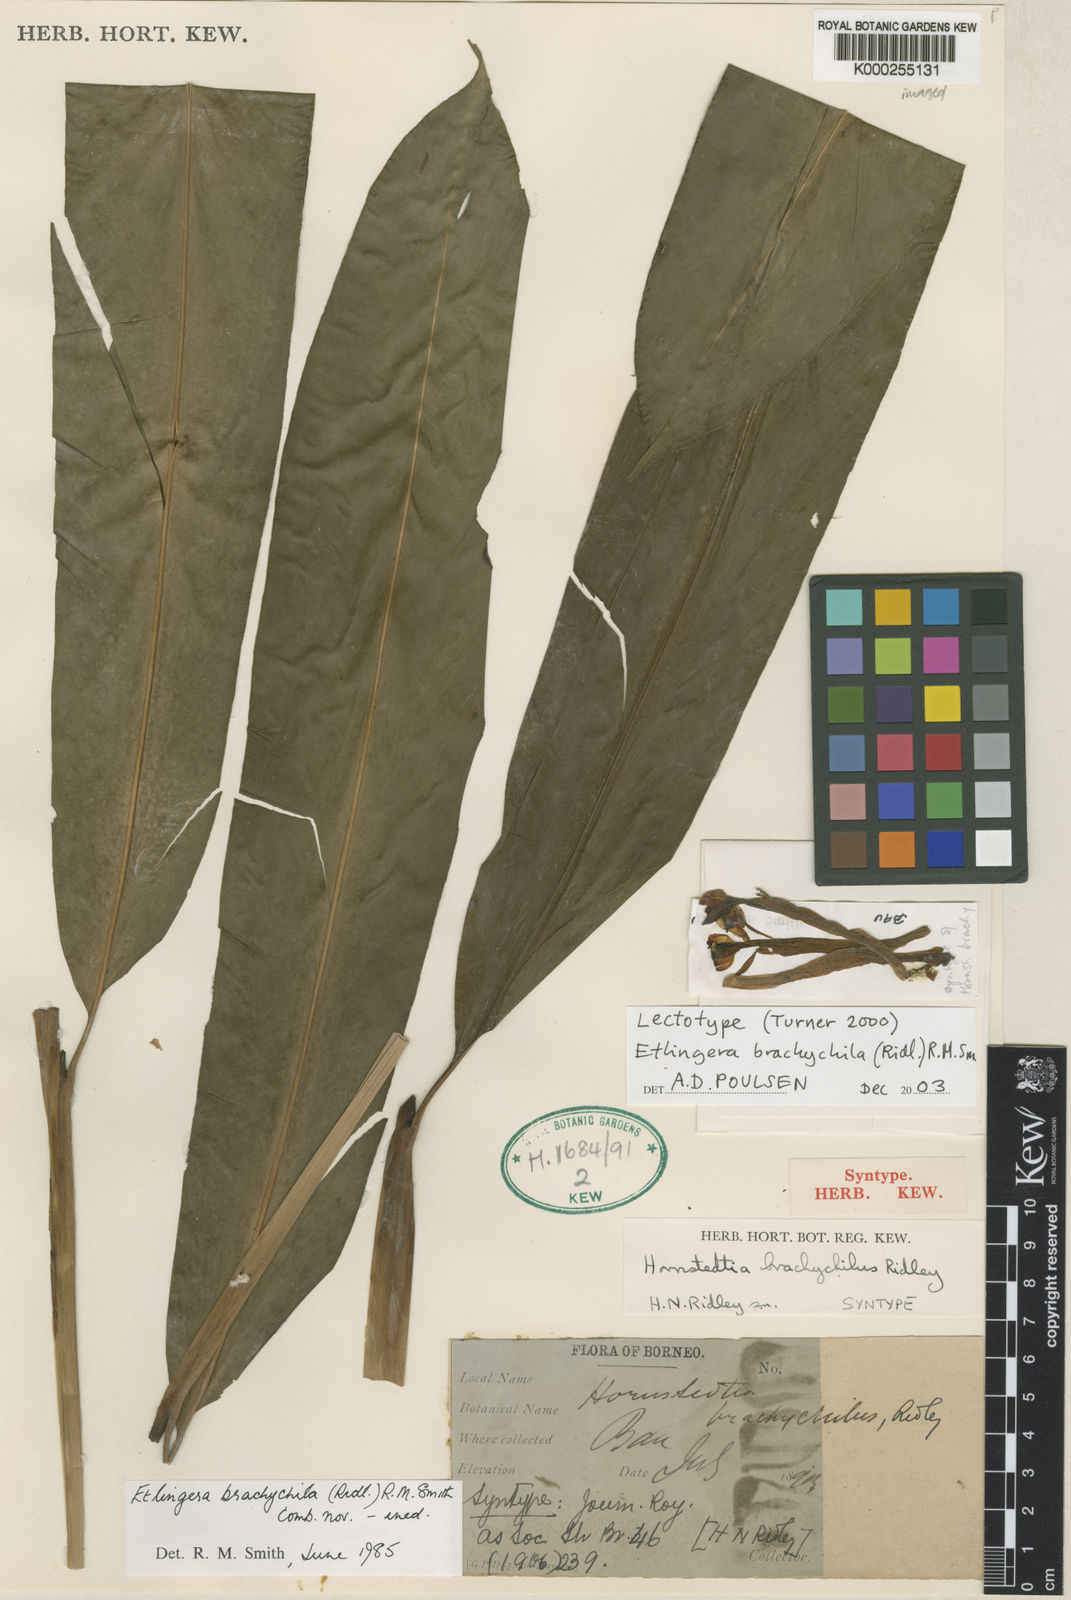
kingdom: Plantae
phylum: Tracheophyta
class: Liliopsida
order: Zingiberales
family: Zingiberaceae
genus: Etlingera
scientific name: Etlingera brachychila
